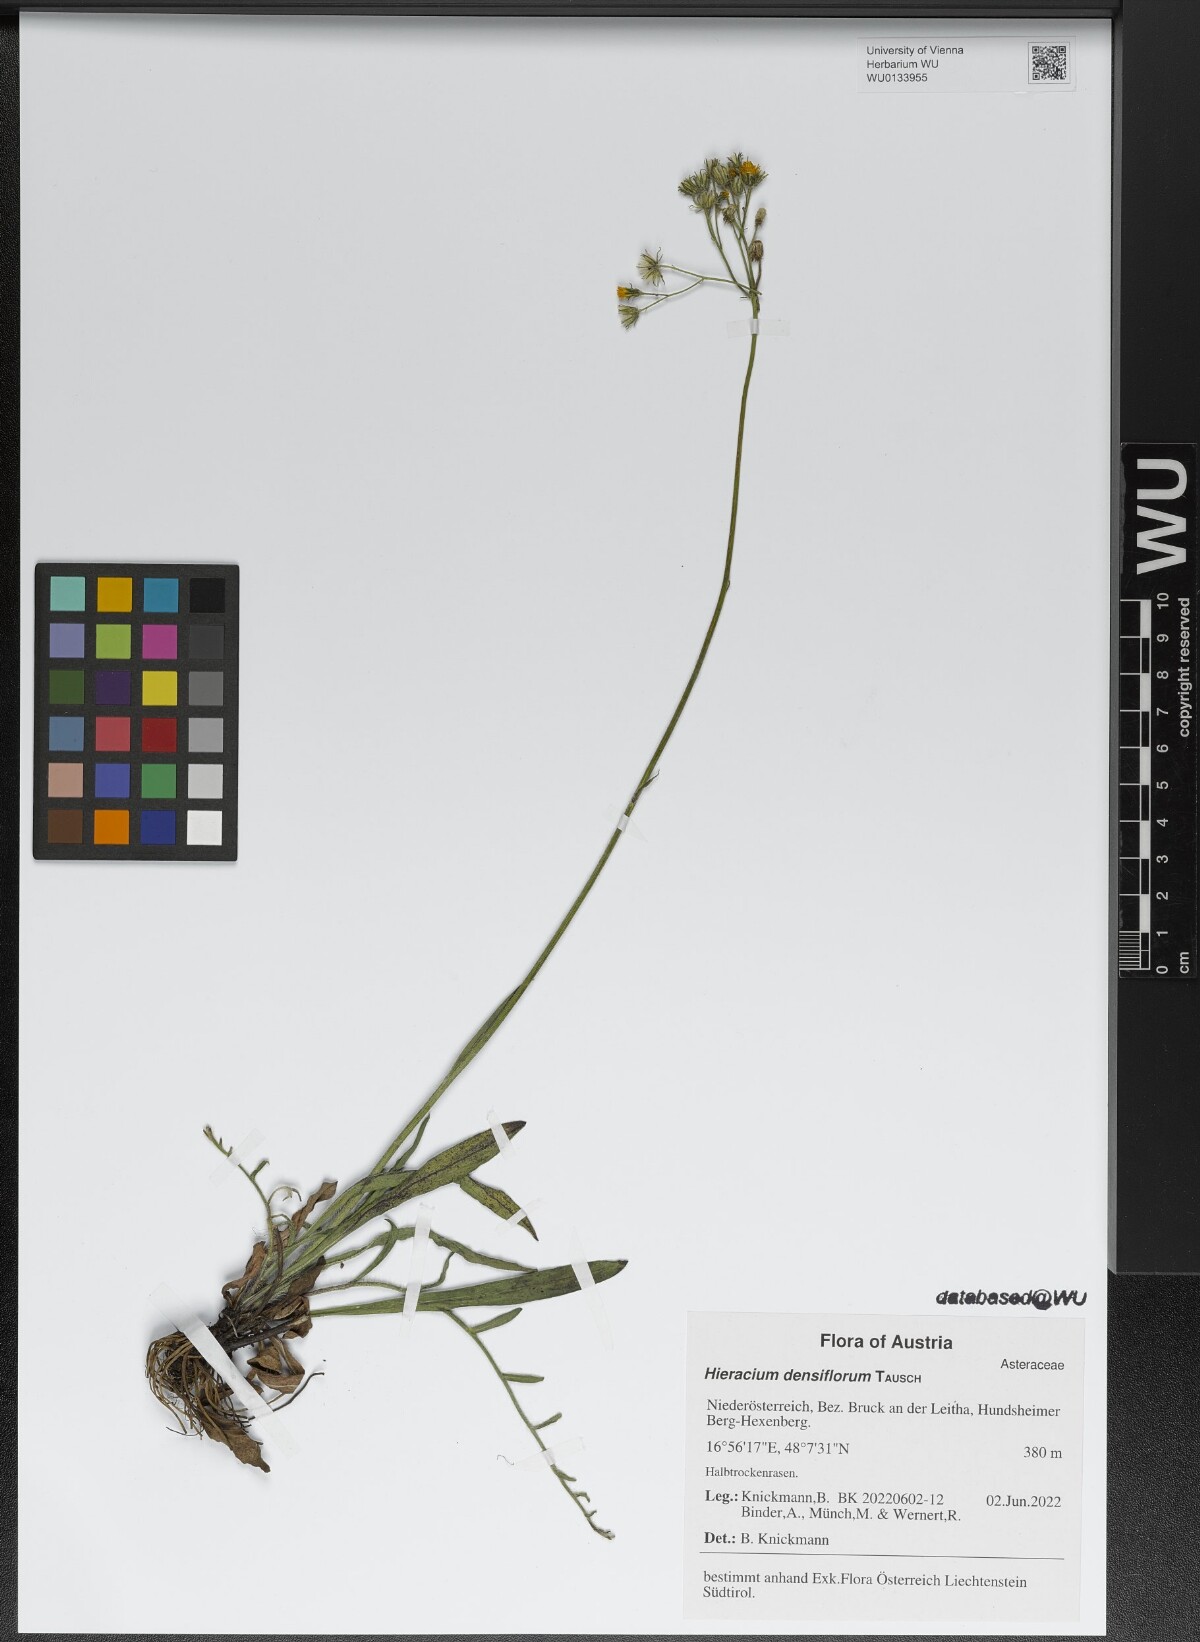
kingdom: Plantae
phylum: Tracheophyta
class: Magnoliopsida
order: Asterales
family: Asteraceae
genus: Pilosella
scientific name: Pilosella densiflora
